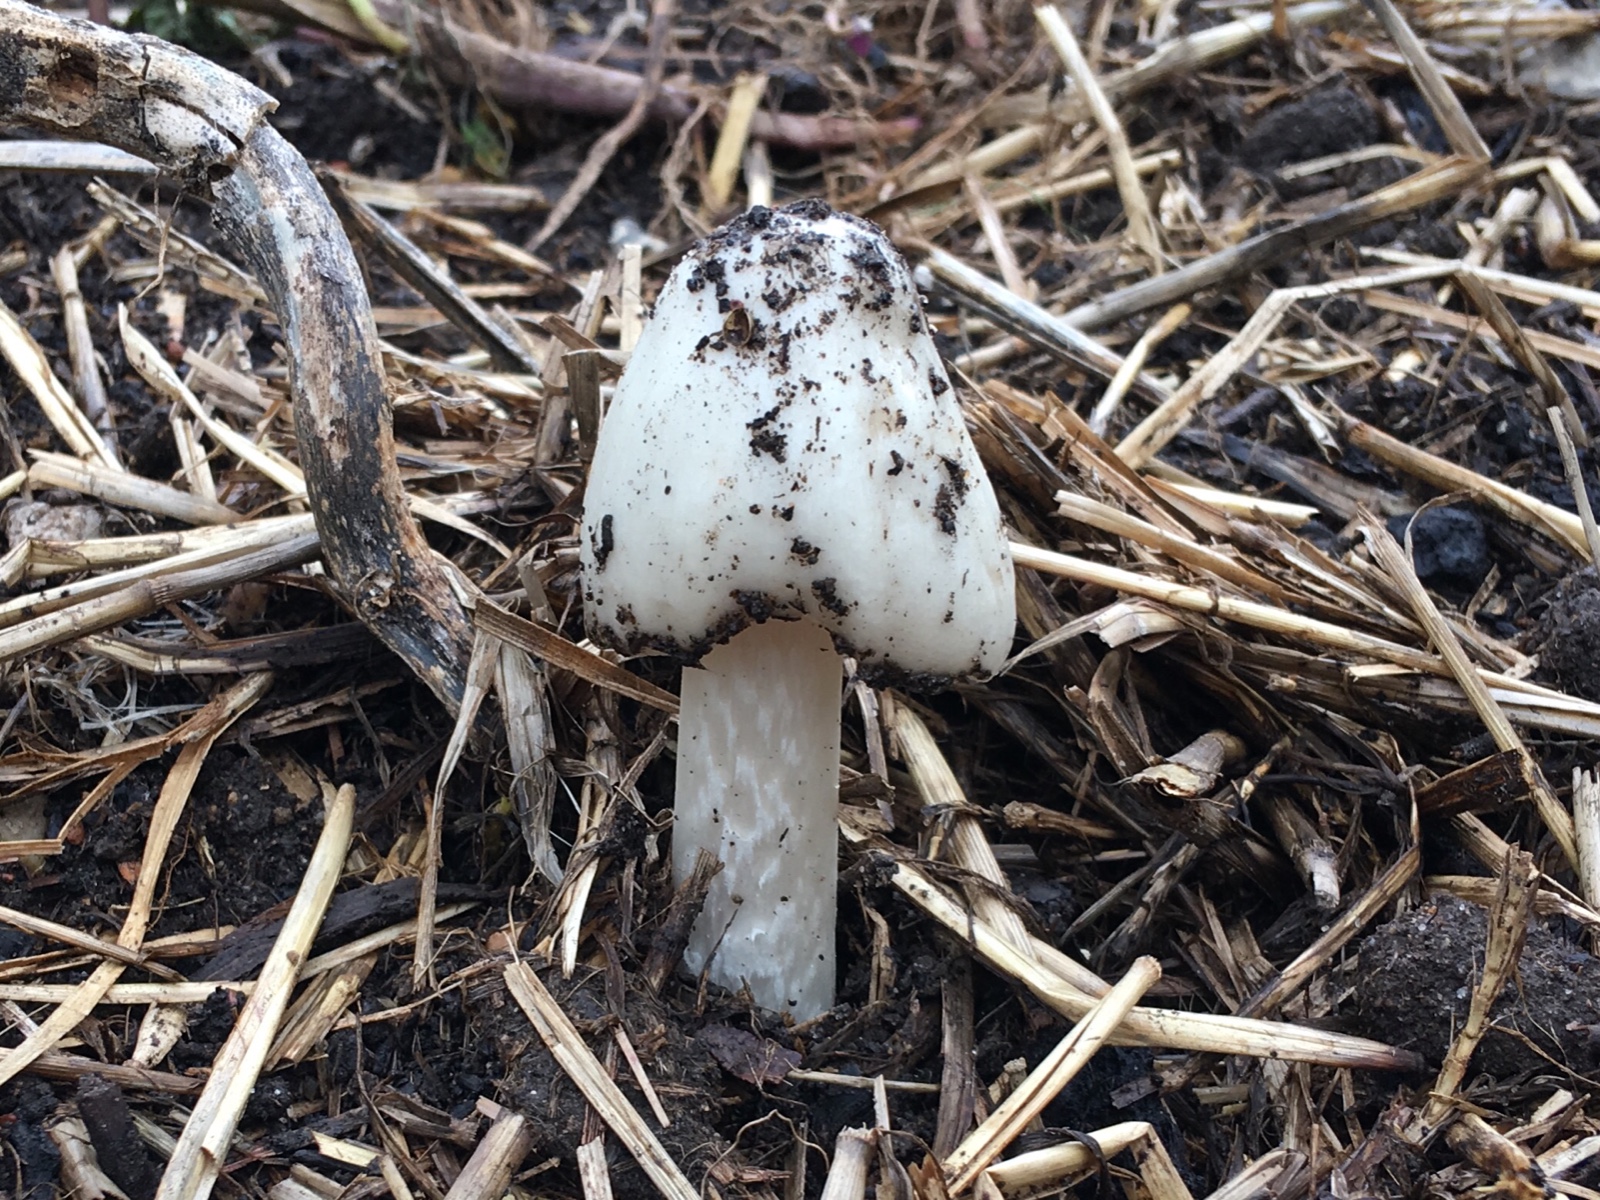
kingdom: Fungi
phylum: Basidiomycota
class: Agaricomycetes
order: Agaricales
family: Pluteaceae
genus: Volvopluteus
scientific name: Volvopluteus gloiocephalus
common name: høj posesvamp
